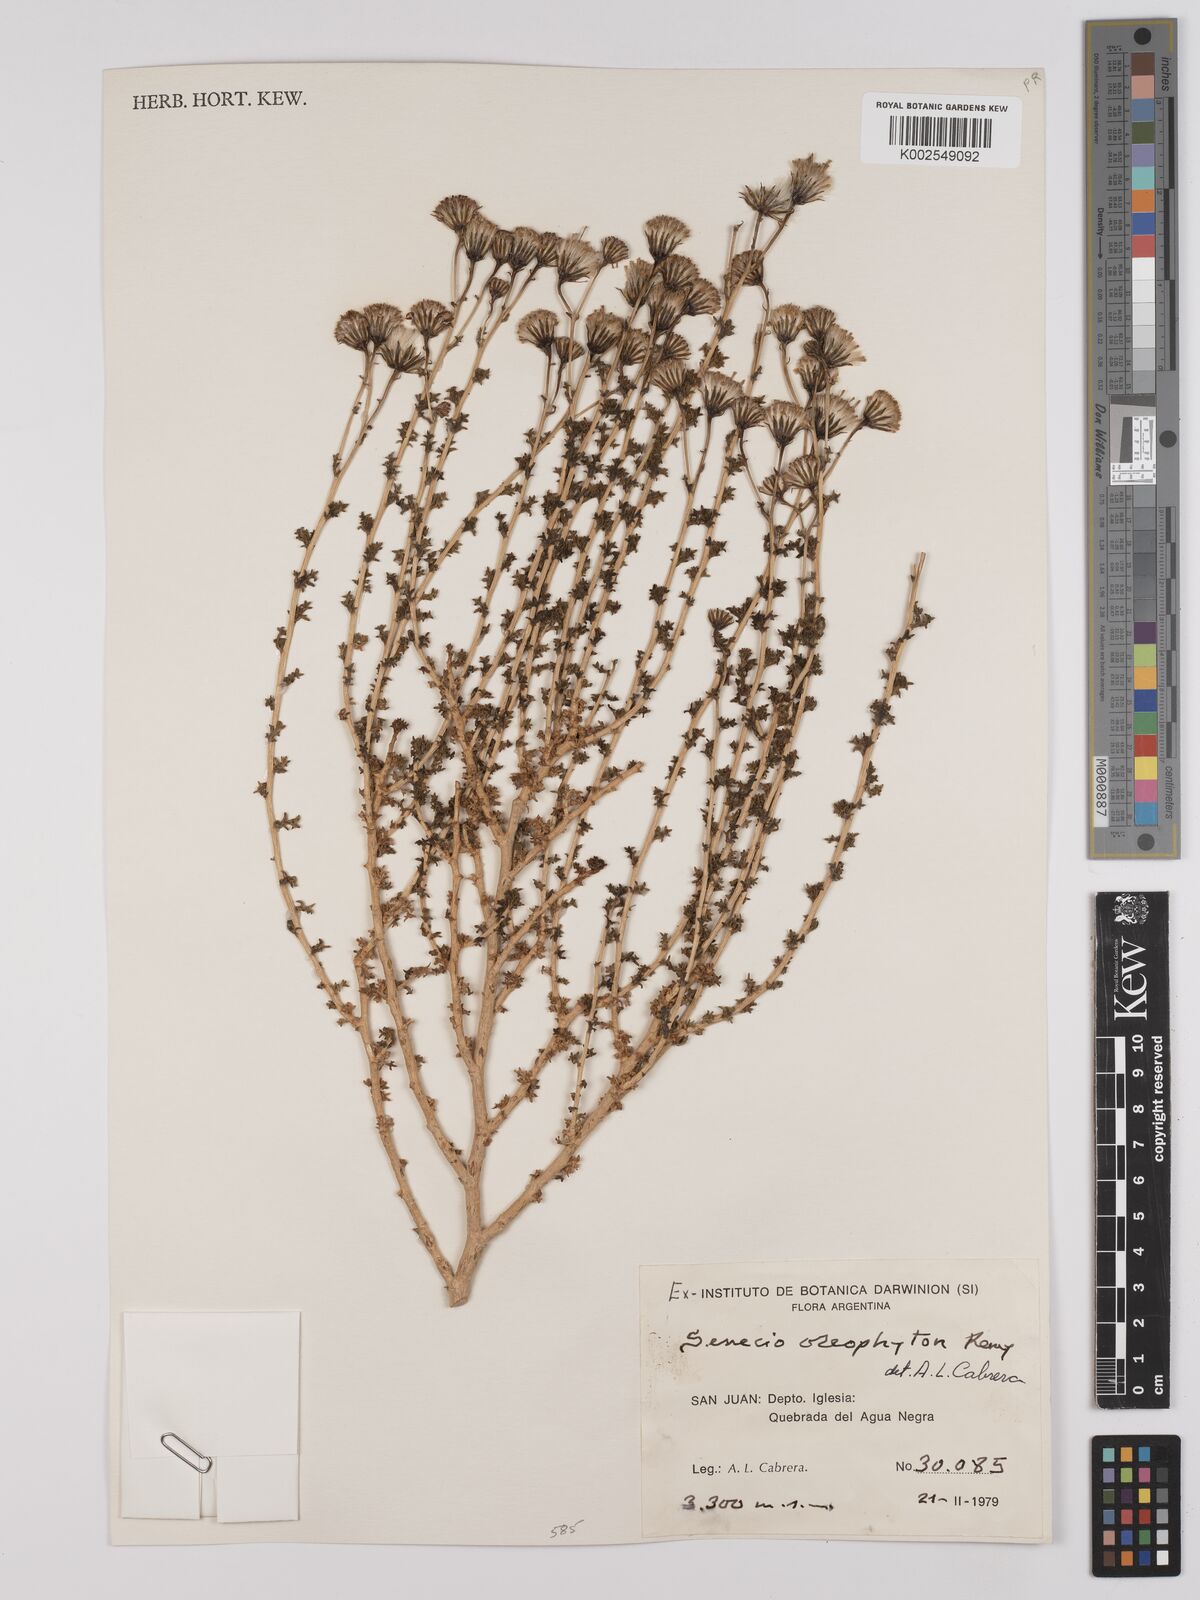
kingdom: Plantae
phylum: Tracheophyta
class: Magnoliopsida
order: Asterales
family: Asteraceae
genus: Senecio
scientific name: Senecio oreophyton
